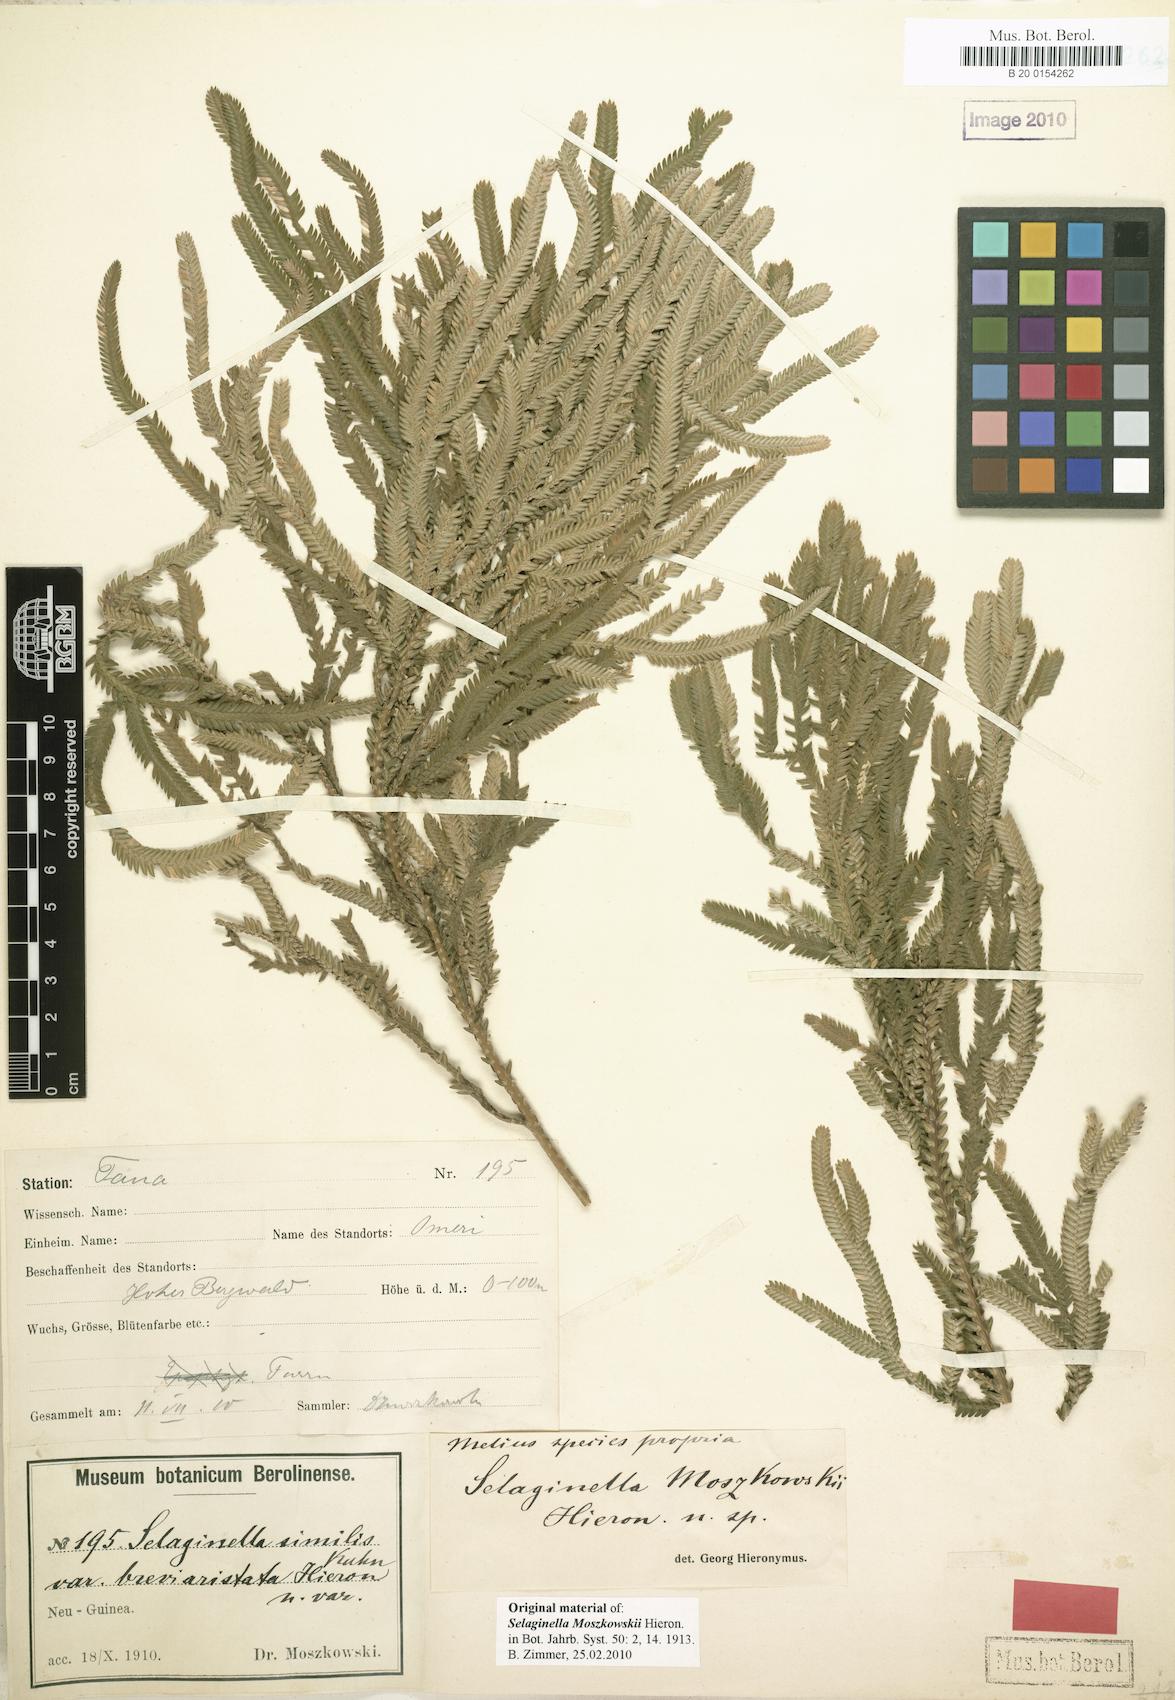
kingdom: Plantae
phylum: Tracheophyta
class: Lycopodiopsida
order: Selaginellales
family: Selaginellaceae
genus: Selaginella
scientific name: Selaginella moszkowskii
